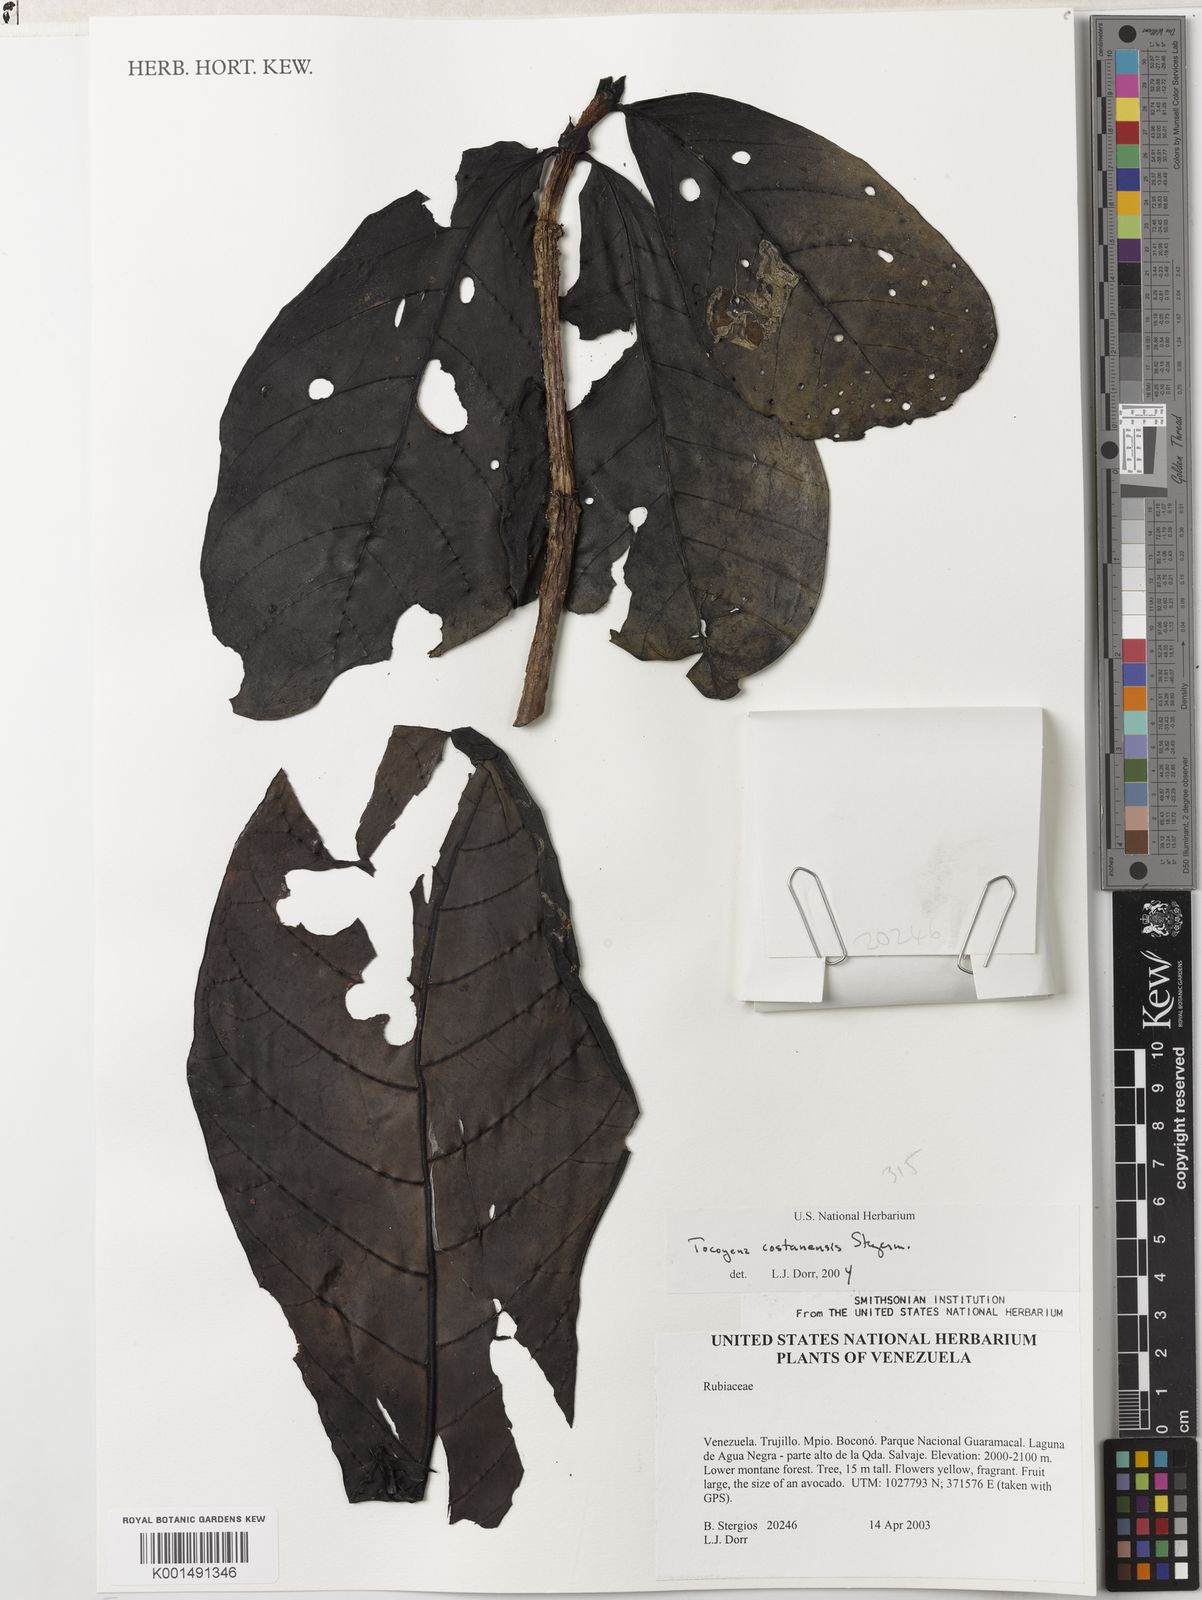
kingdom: Plantae
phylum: Tracheophyta
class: Magnoliopsida
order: Gentianales
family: Rubiaceae
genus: Tocoyena
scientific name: Tocoyena costanensis
